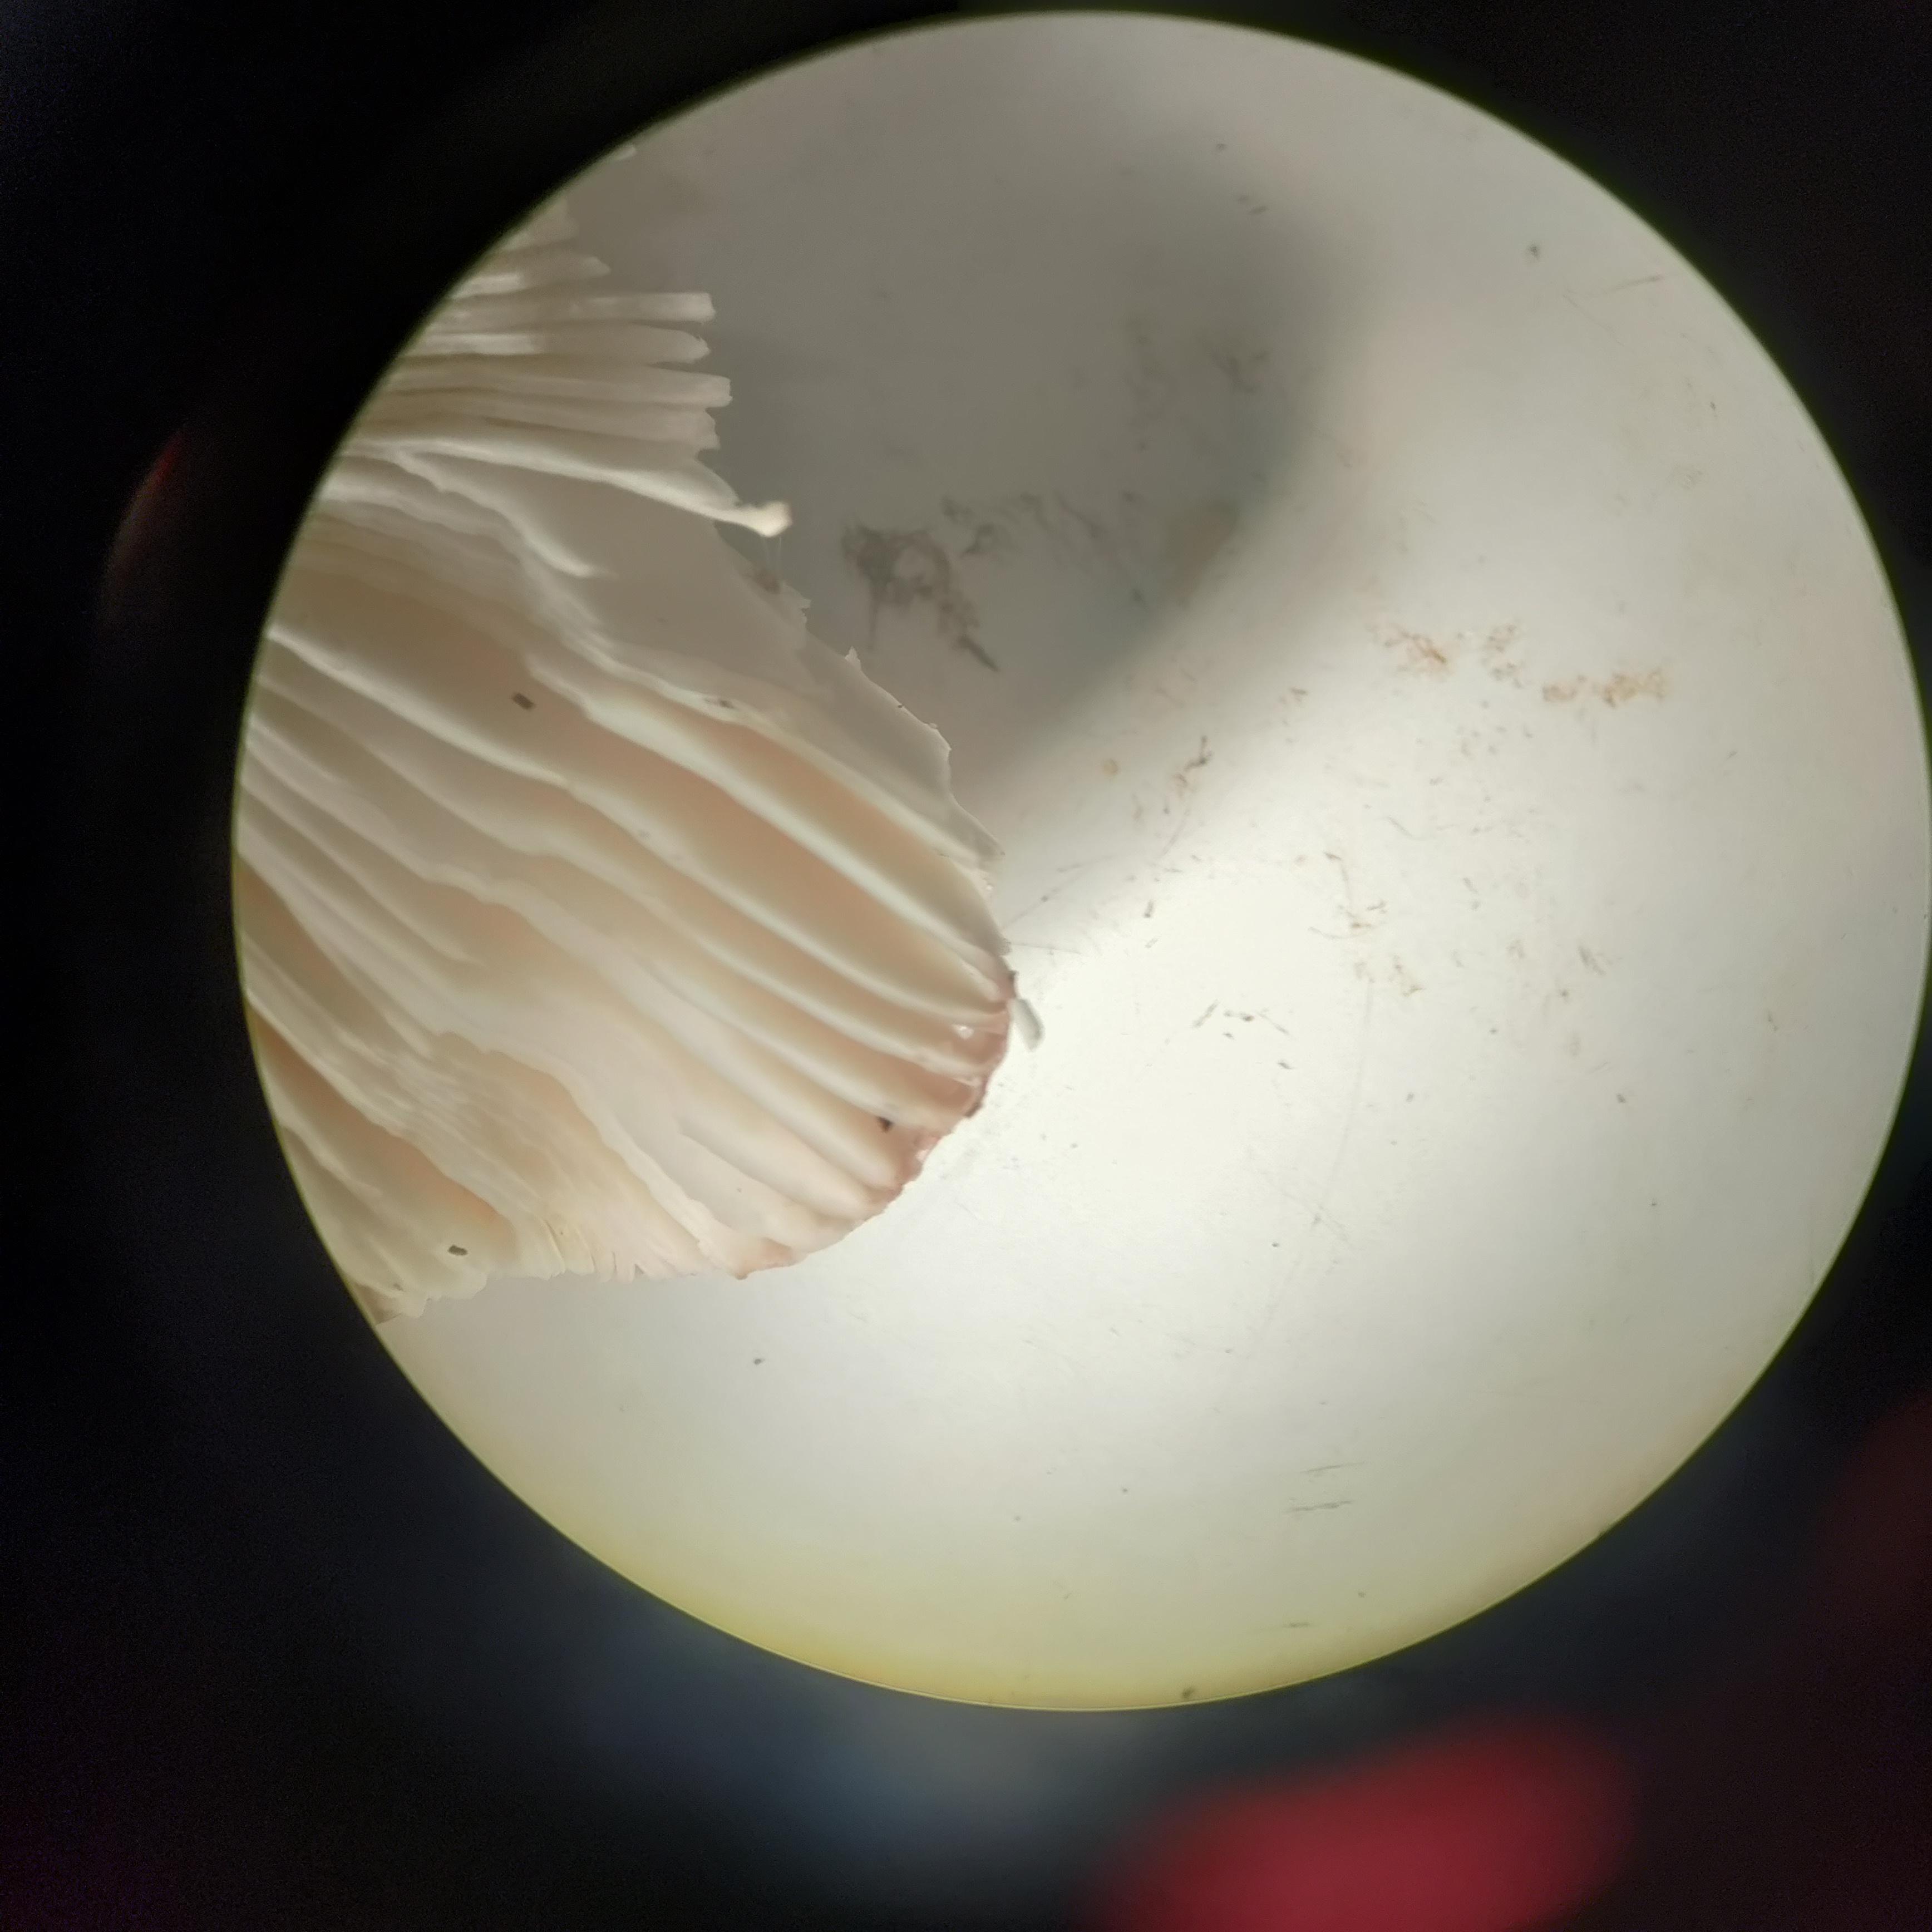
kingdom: Fungi
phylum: Basidiomycota
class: Agaricomycetes
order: Russulales
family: Russulaceae
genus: Russula
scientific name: Russula
